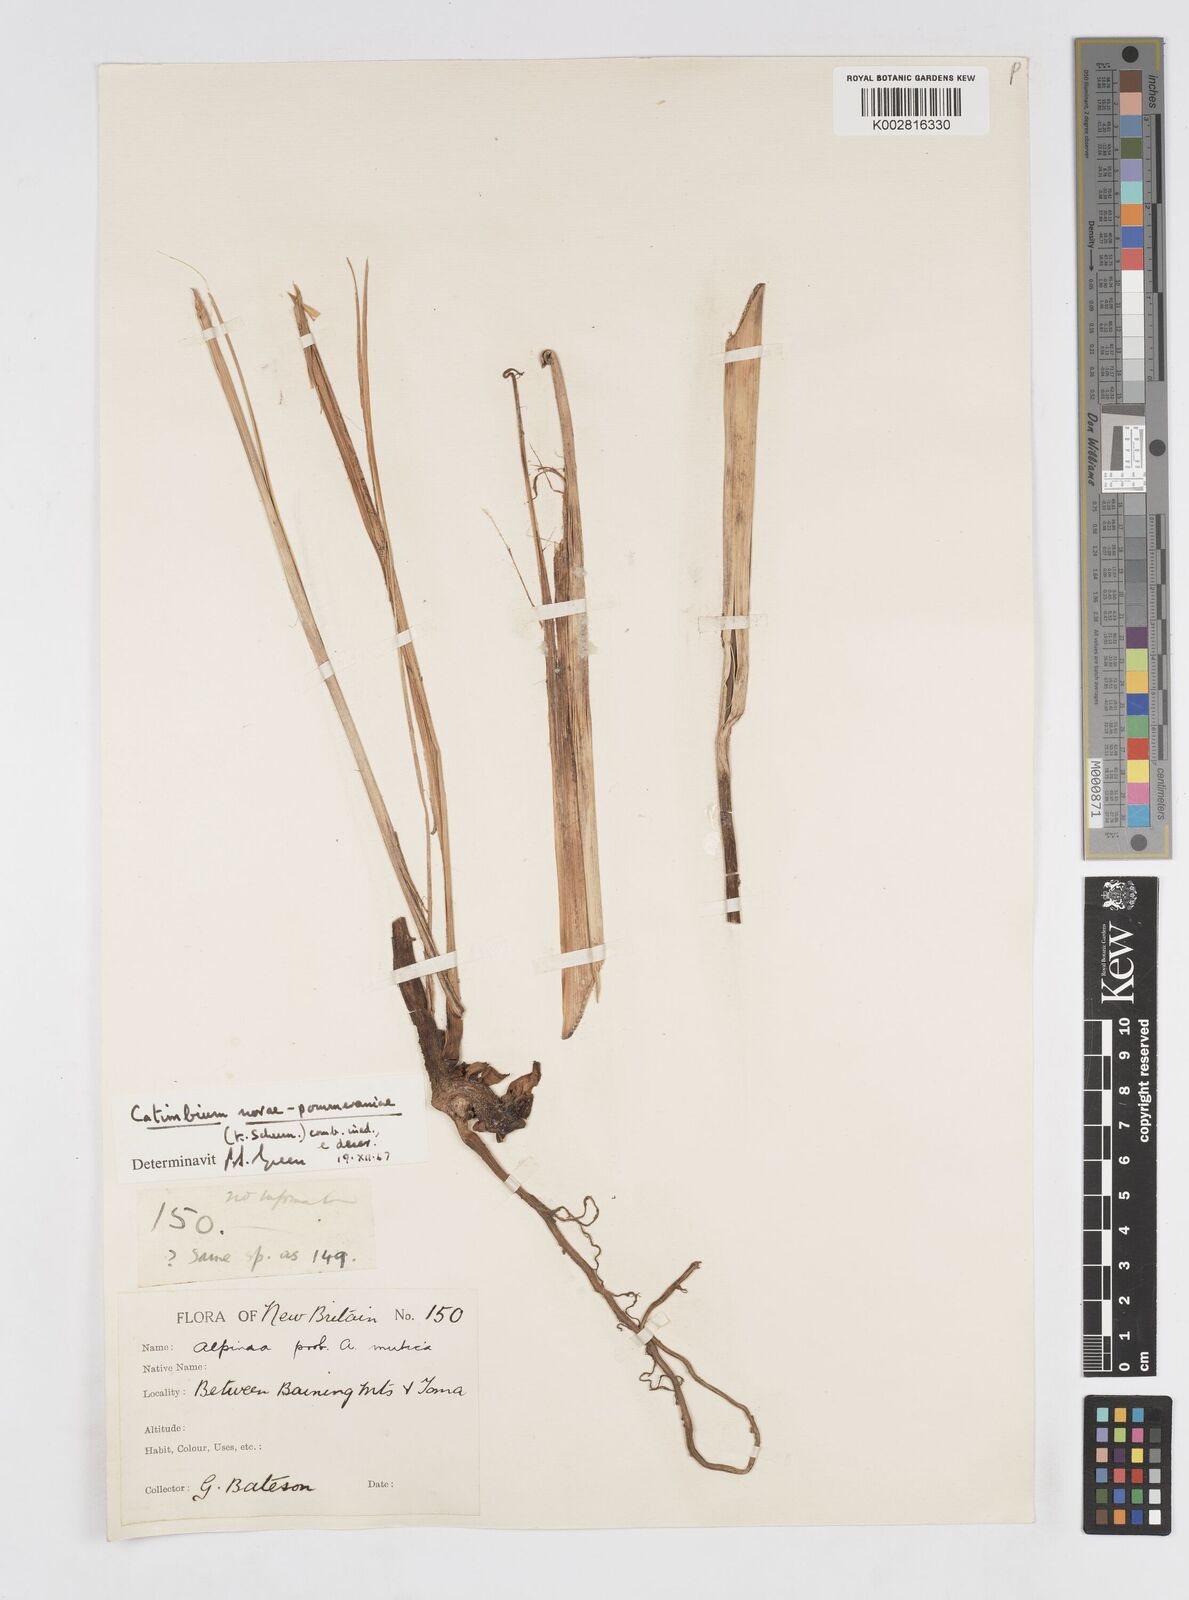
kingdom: Plantae
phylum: Tracheophyta
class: Liliopsida
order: Zingiberales
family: Zingiberaceae
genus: Alpinia
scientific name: Alpinia novae-pommeraniae
